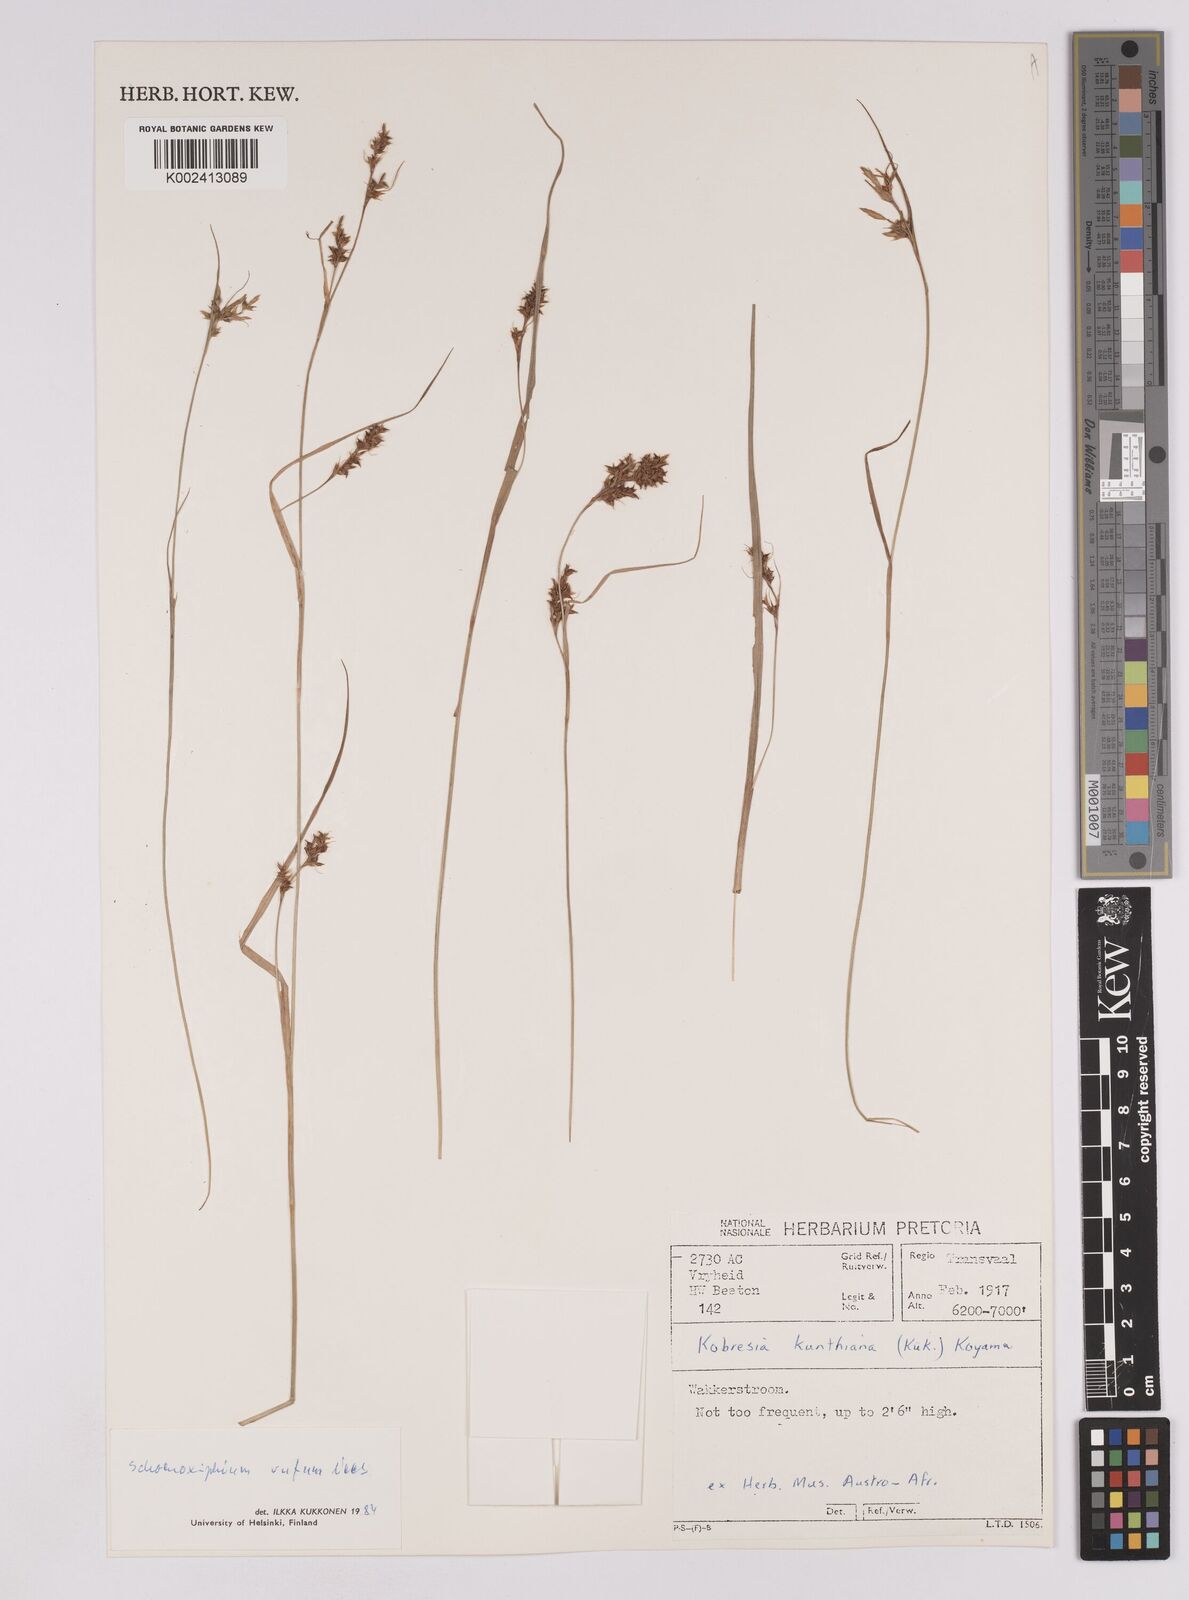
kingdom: Plantae
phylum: Tracheophyta
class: Liliopsida
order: Poales
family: Cyperaceae
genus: Carex
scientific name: Carex ludwigii
